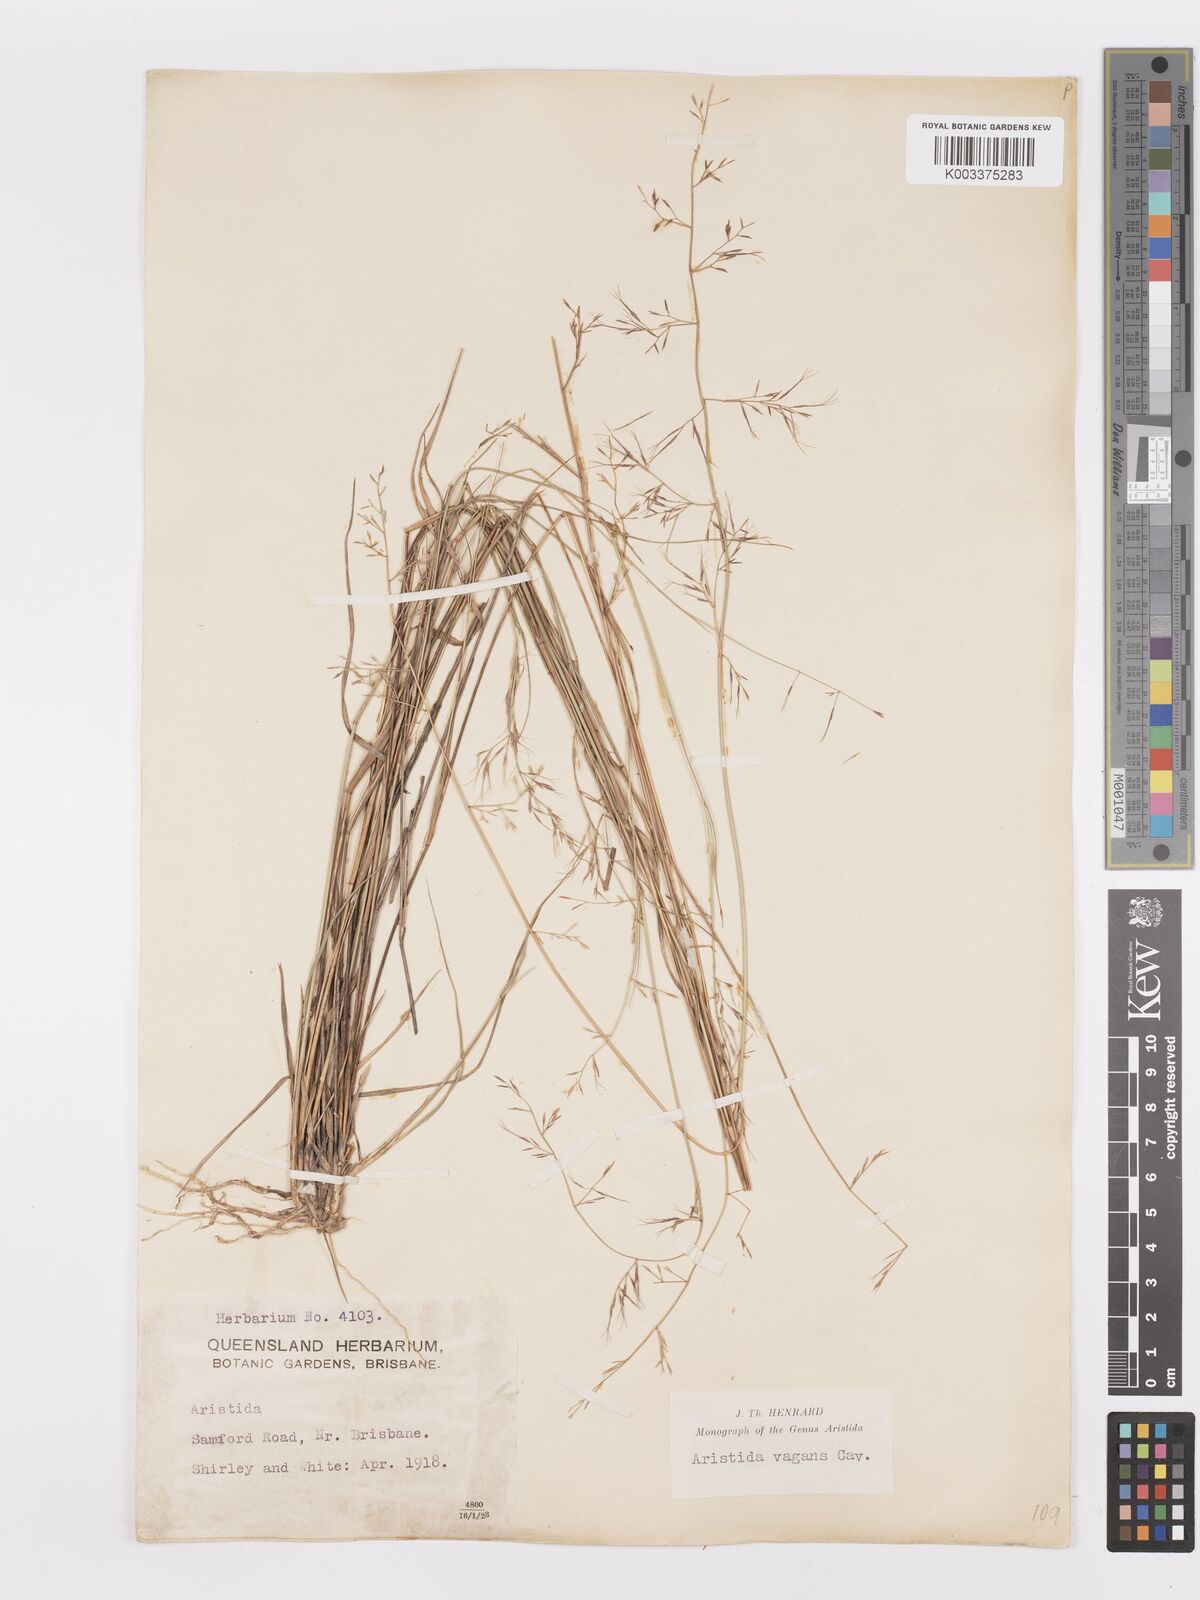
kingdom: Plantae
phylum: Tracheophyta
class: Liliopsida
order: Poales
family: Poaceae
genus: Aristida
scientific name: Aristida vagans
